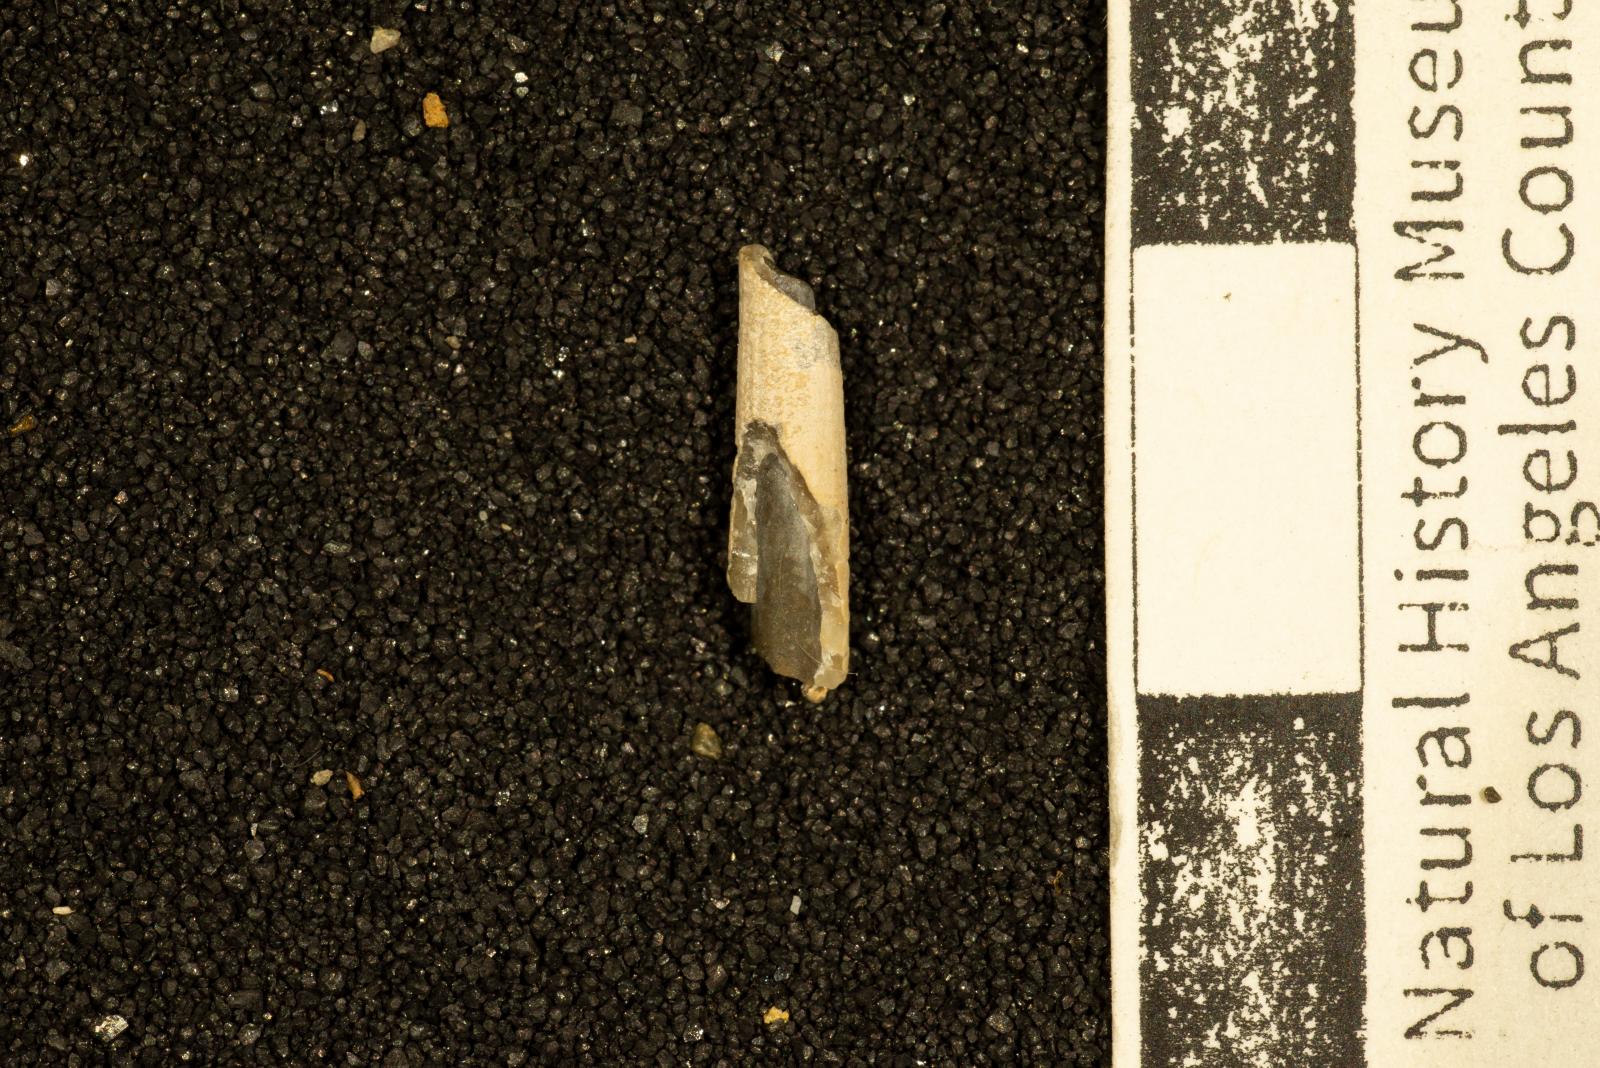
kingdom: Animalia
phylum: Mollusca
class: Scaphopoda
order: Dentaliida
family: Dentaliidae
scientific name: Dentaliidae
